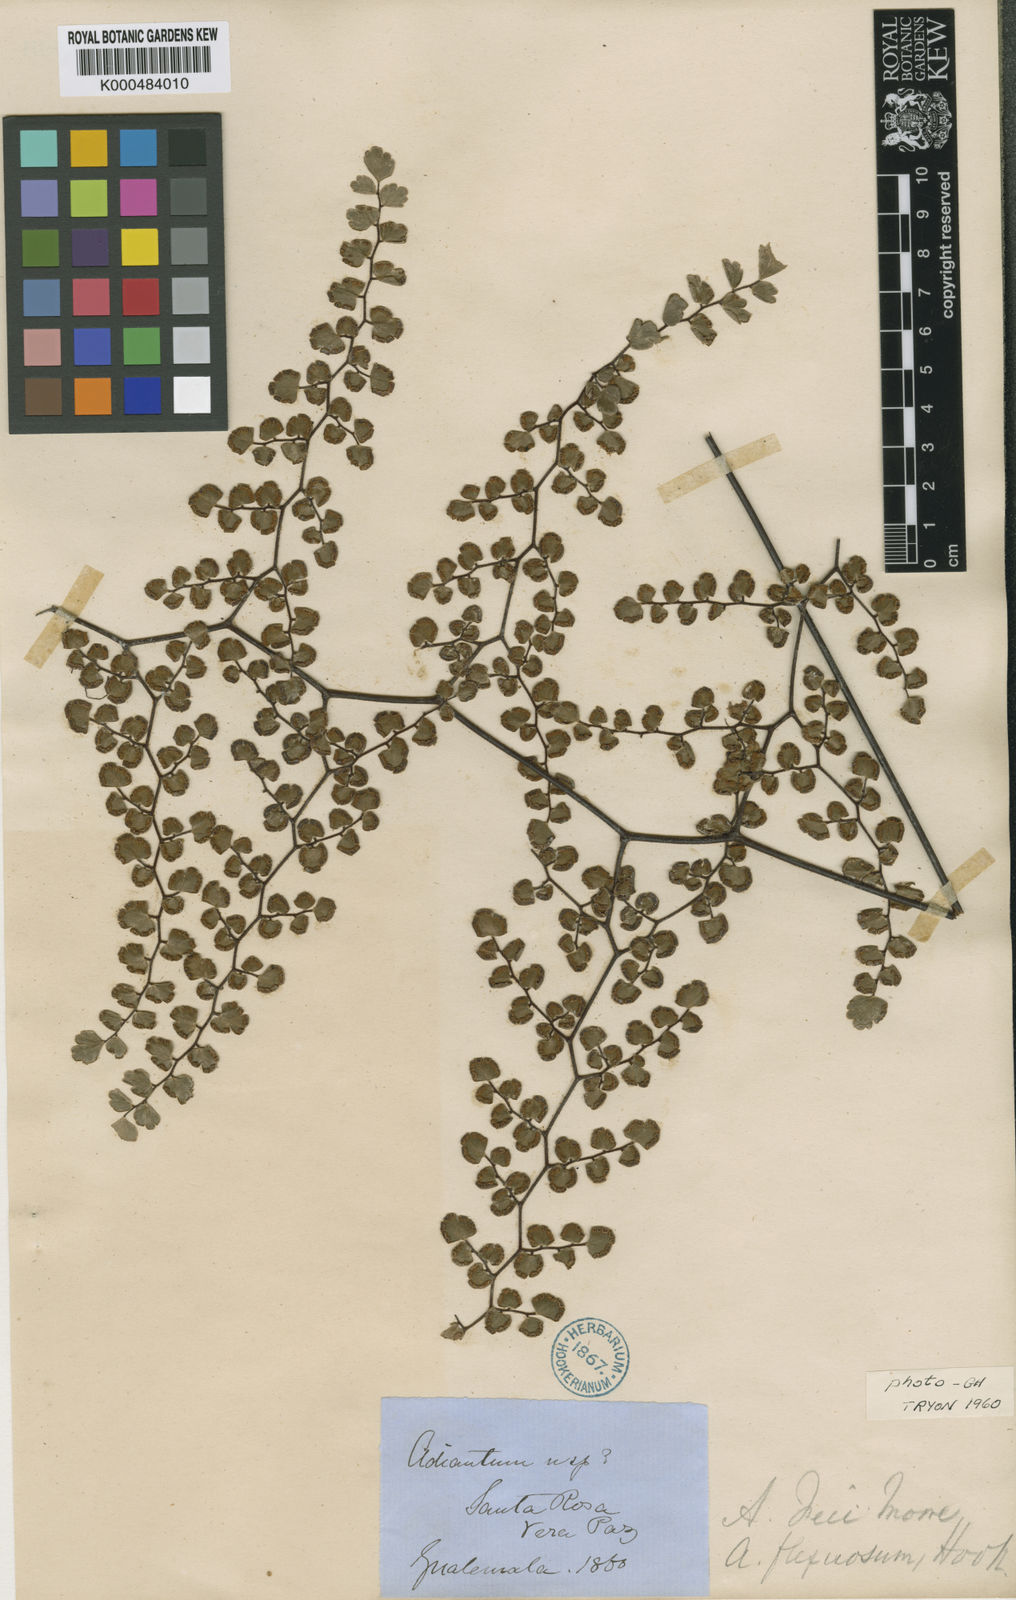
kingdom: Plantae
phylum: Tracheophyta
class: Polypodiopsida
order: Polypodiales
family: Pteridaceae
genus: Adiantum
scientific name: Adiantum
